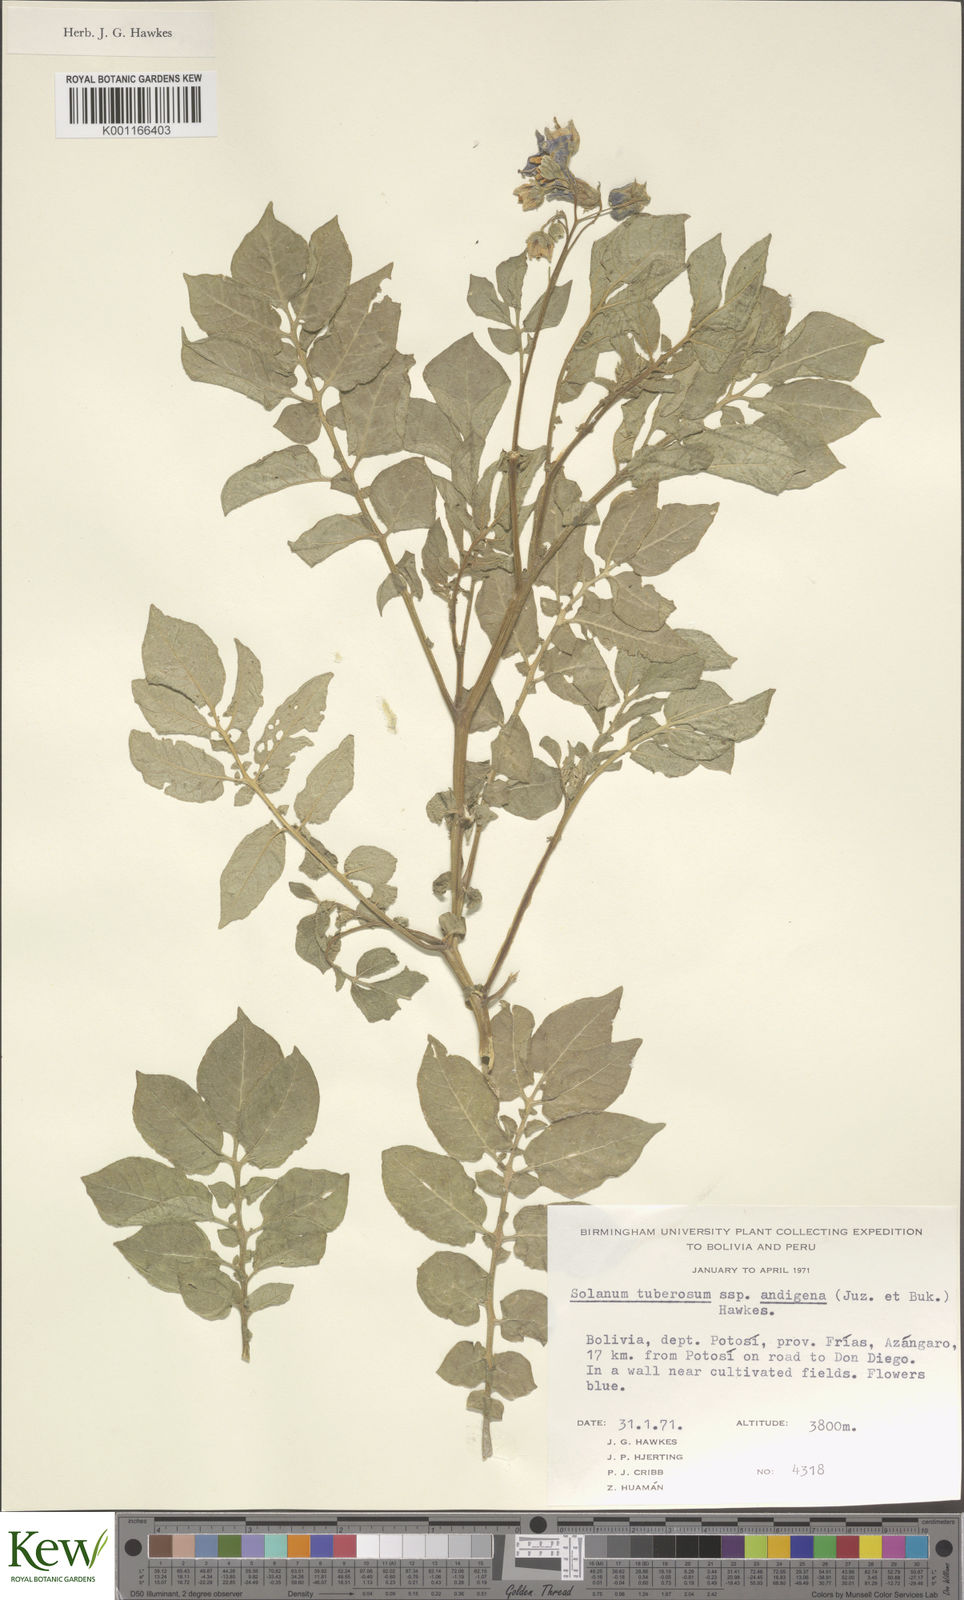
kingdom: Plantae
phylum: Tracheophyta
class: Magnoliopsida
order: Solanales
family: Solanaceae
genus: Solanum
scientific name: Solanum tuberosum
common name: Potato
